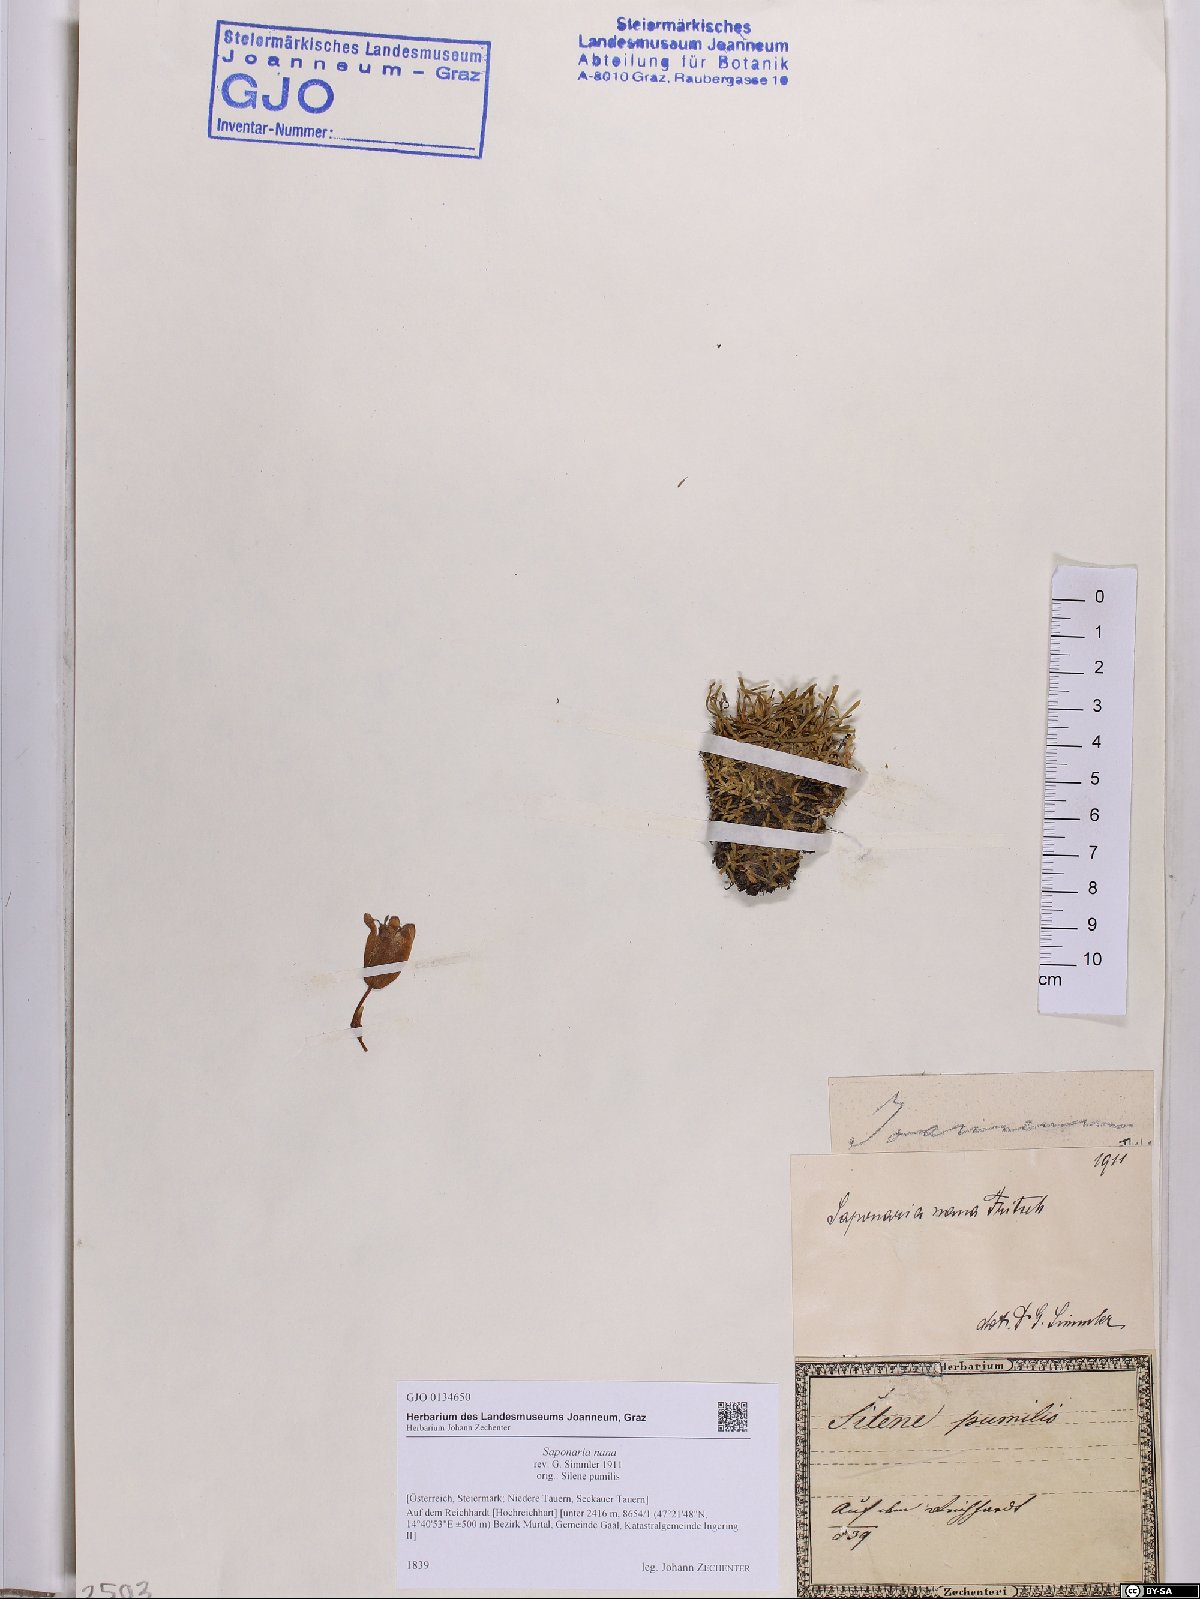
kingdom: Plantae
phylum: Tracheophyta
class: Magnoliopsida
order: Caryophyllales
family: Caryophyllaceae
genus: Saponaria
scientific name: Saponaria pumila
